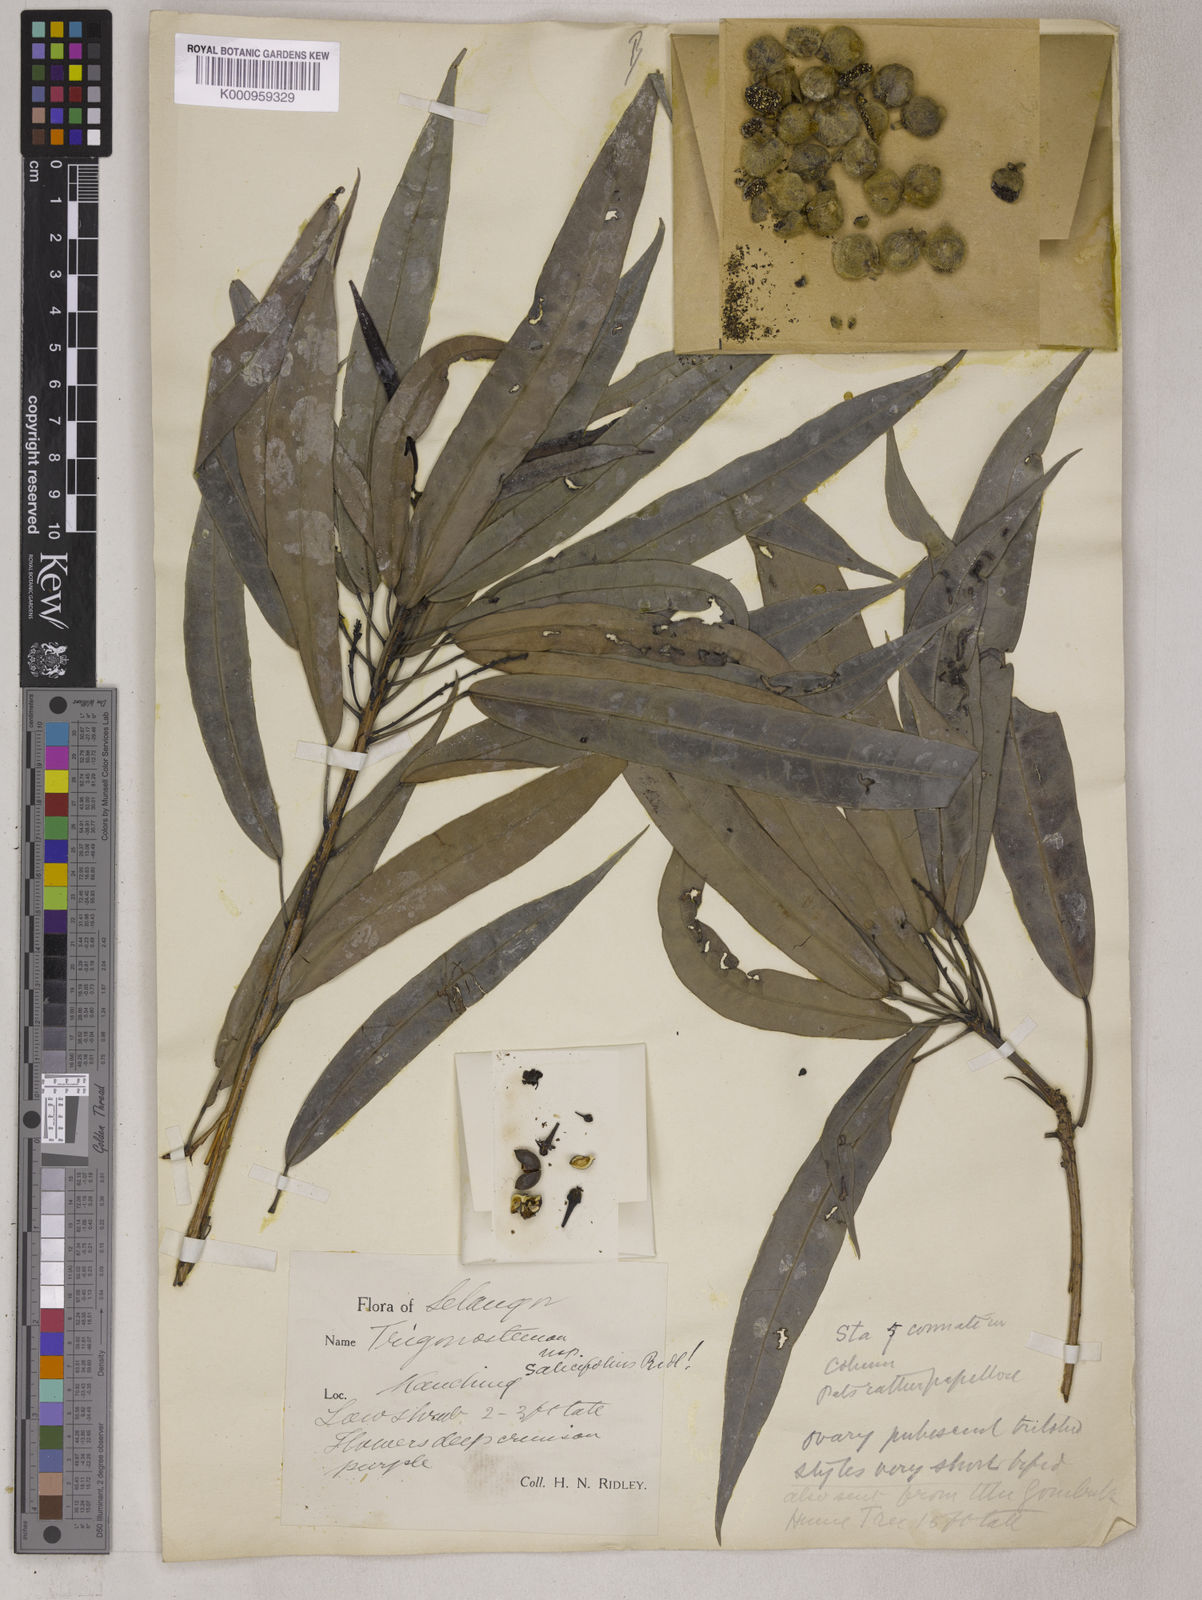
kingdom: Plantae
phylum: Tracheophyta
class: Magnoliopsida
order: Malpighiales
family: Euphorbiaceae
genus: Trigonostemon
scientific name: Trigonostemon verticillatus
